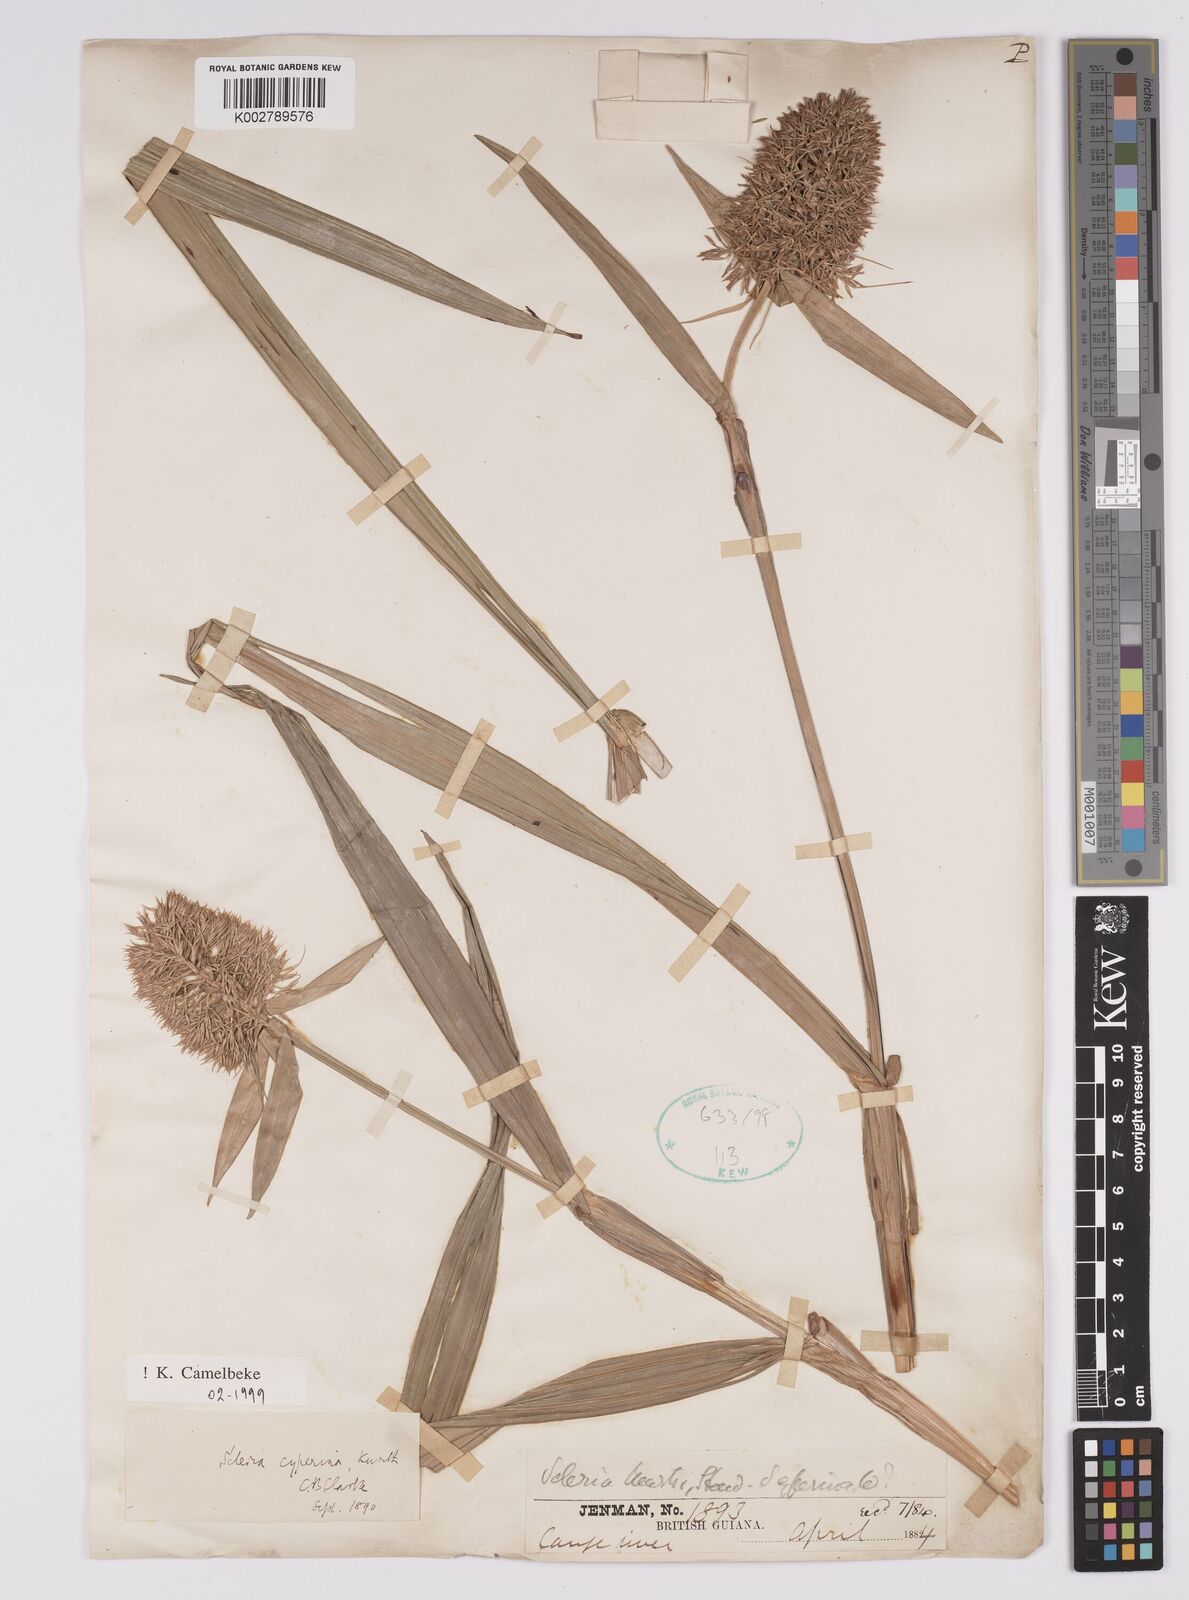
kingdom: Plantae
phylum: Tracheophyta
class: Liliopsida
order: Poales
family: Cyperaceae
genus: Scleria
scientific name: Scleria cyperina
